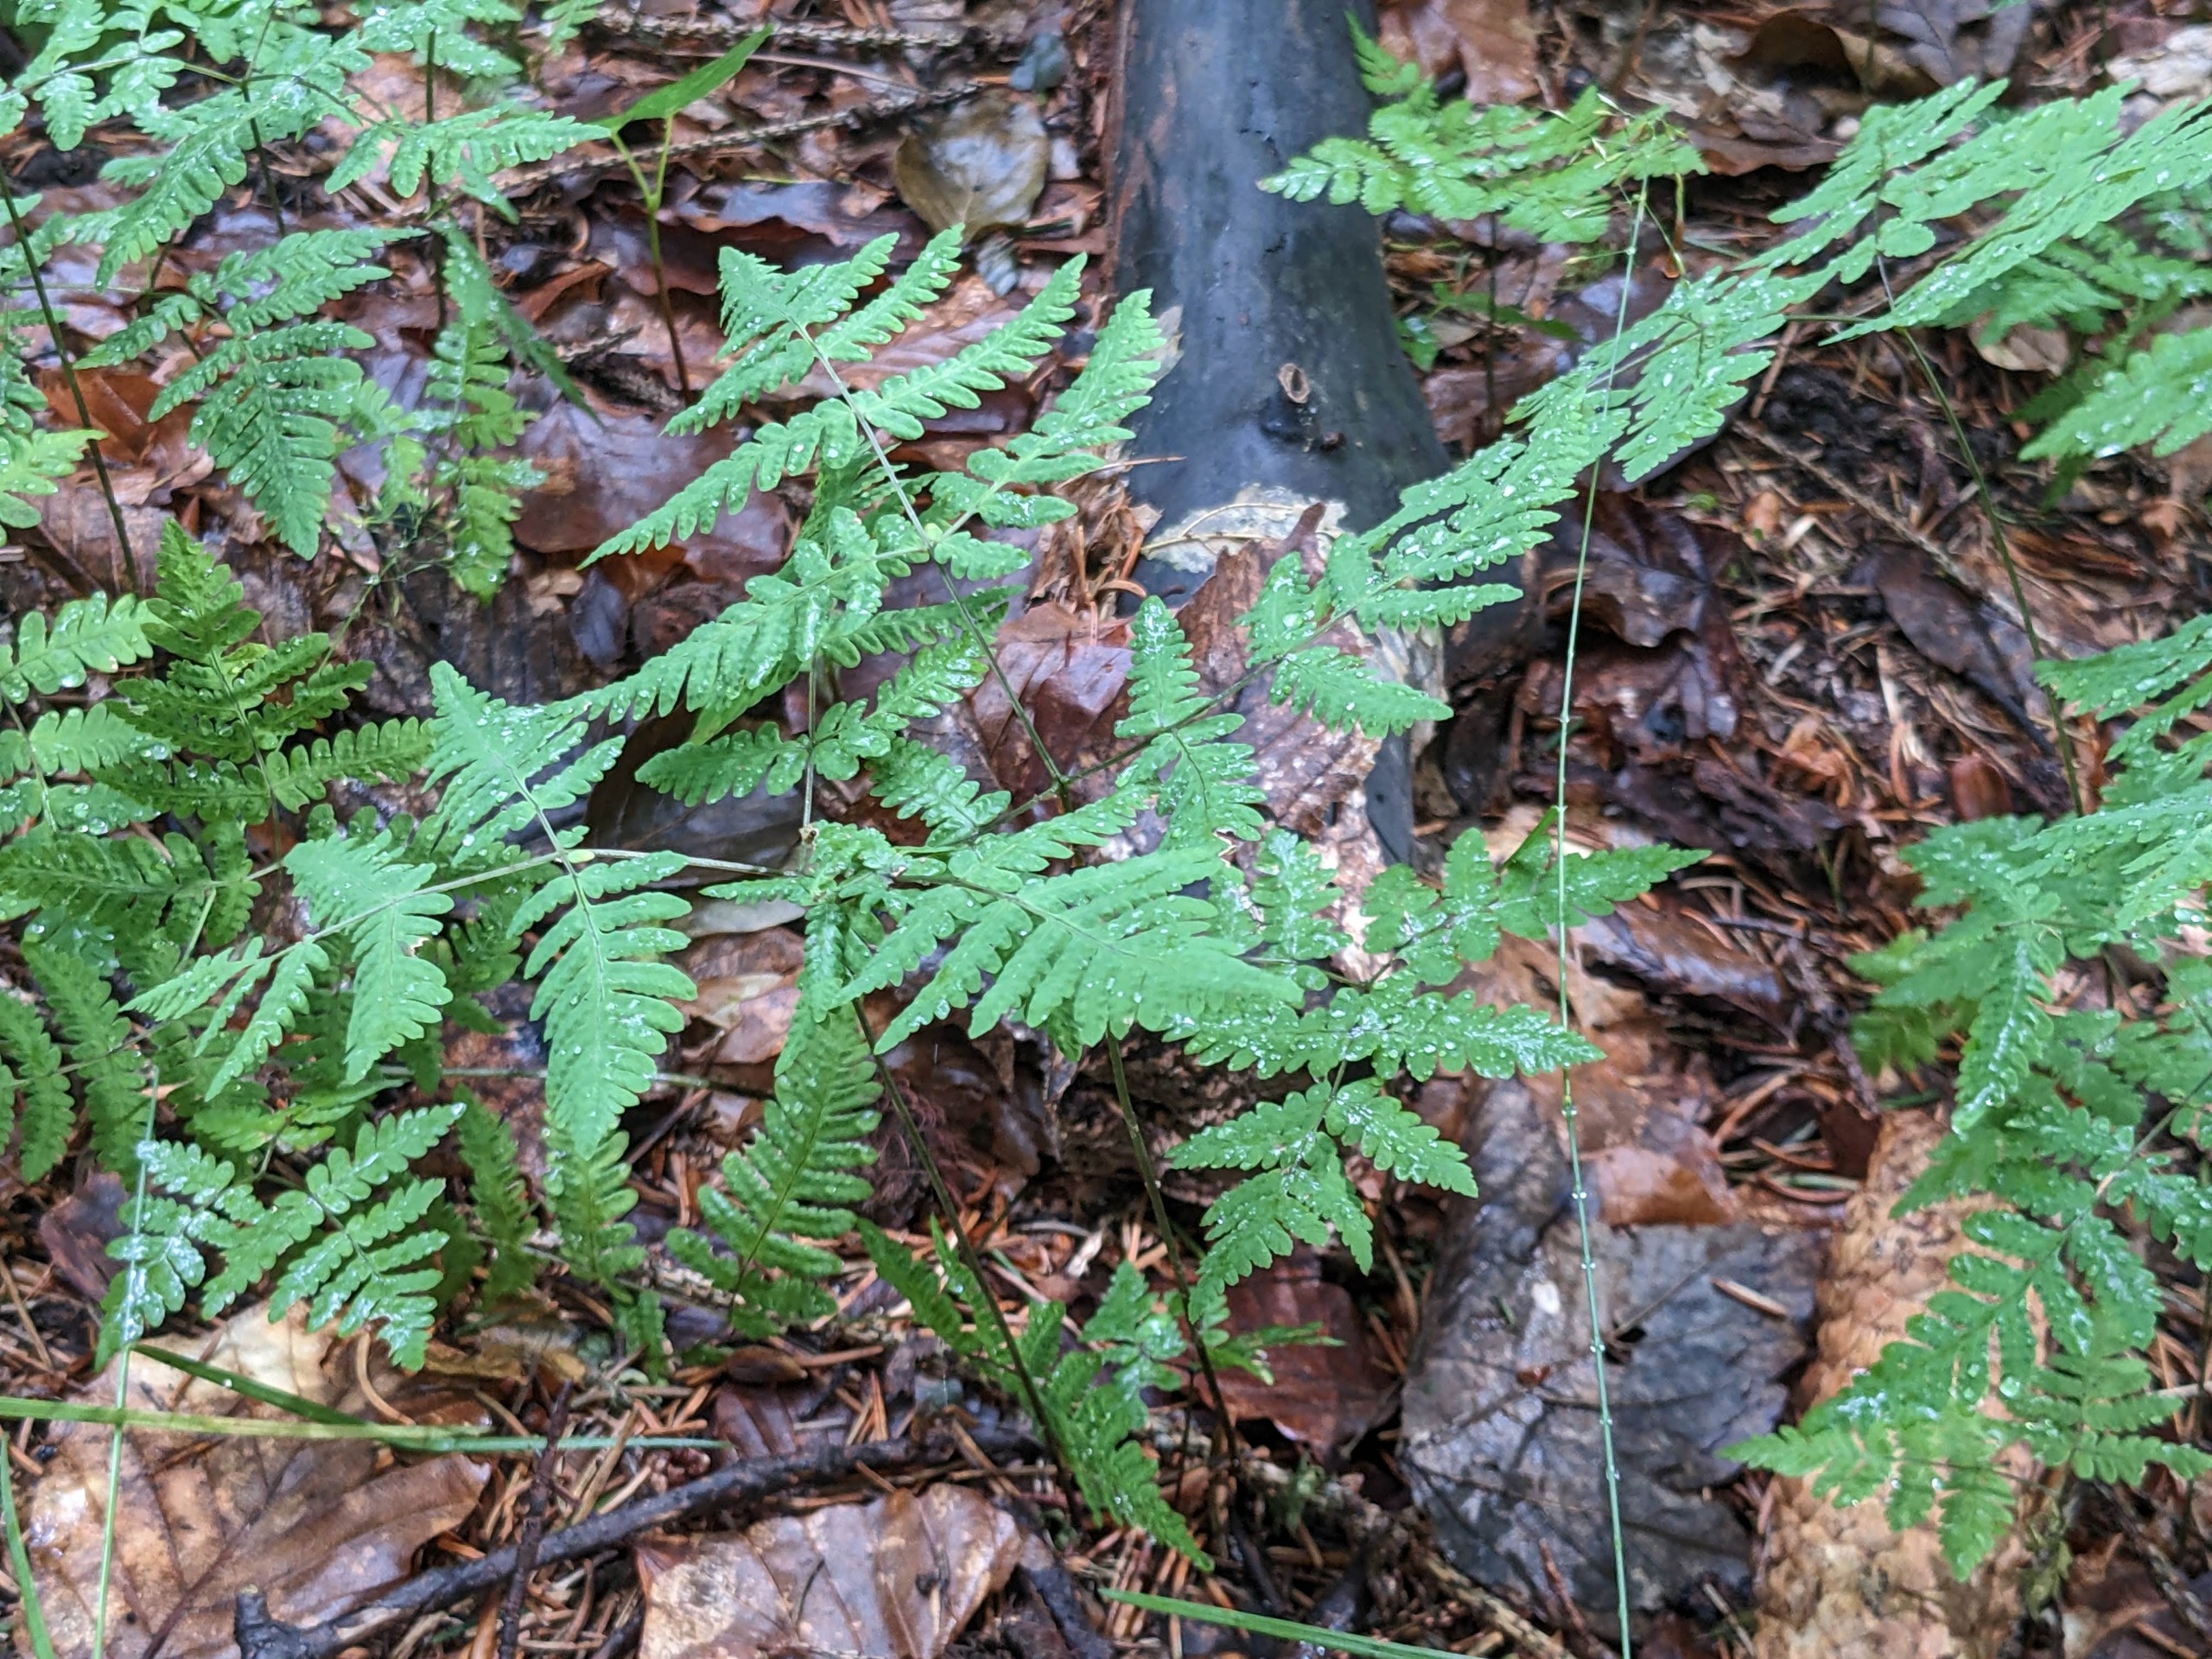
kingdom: Plantae
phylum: Tracheophyta
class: Polypodiopsida
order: Polypodiales
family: Cystopteridaceae
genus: Gymnocarpium
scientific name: Gymnocarpium dryopteris
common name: Tredelt egebregne
